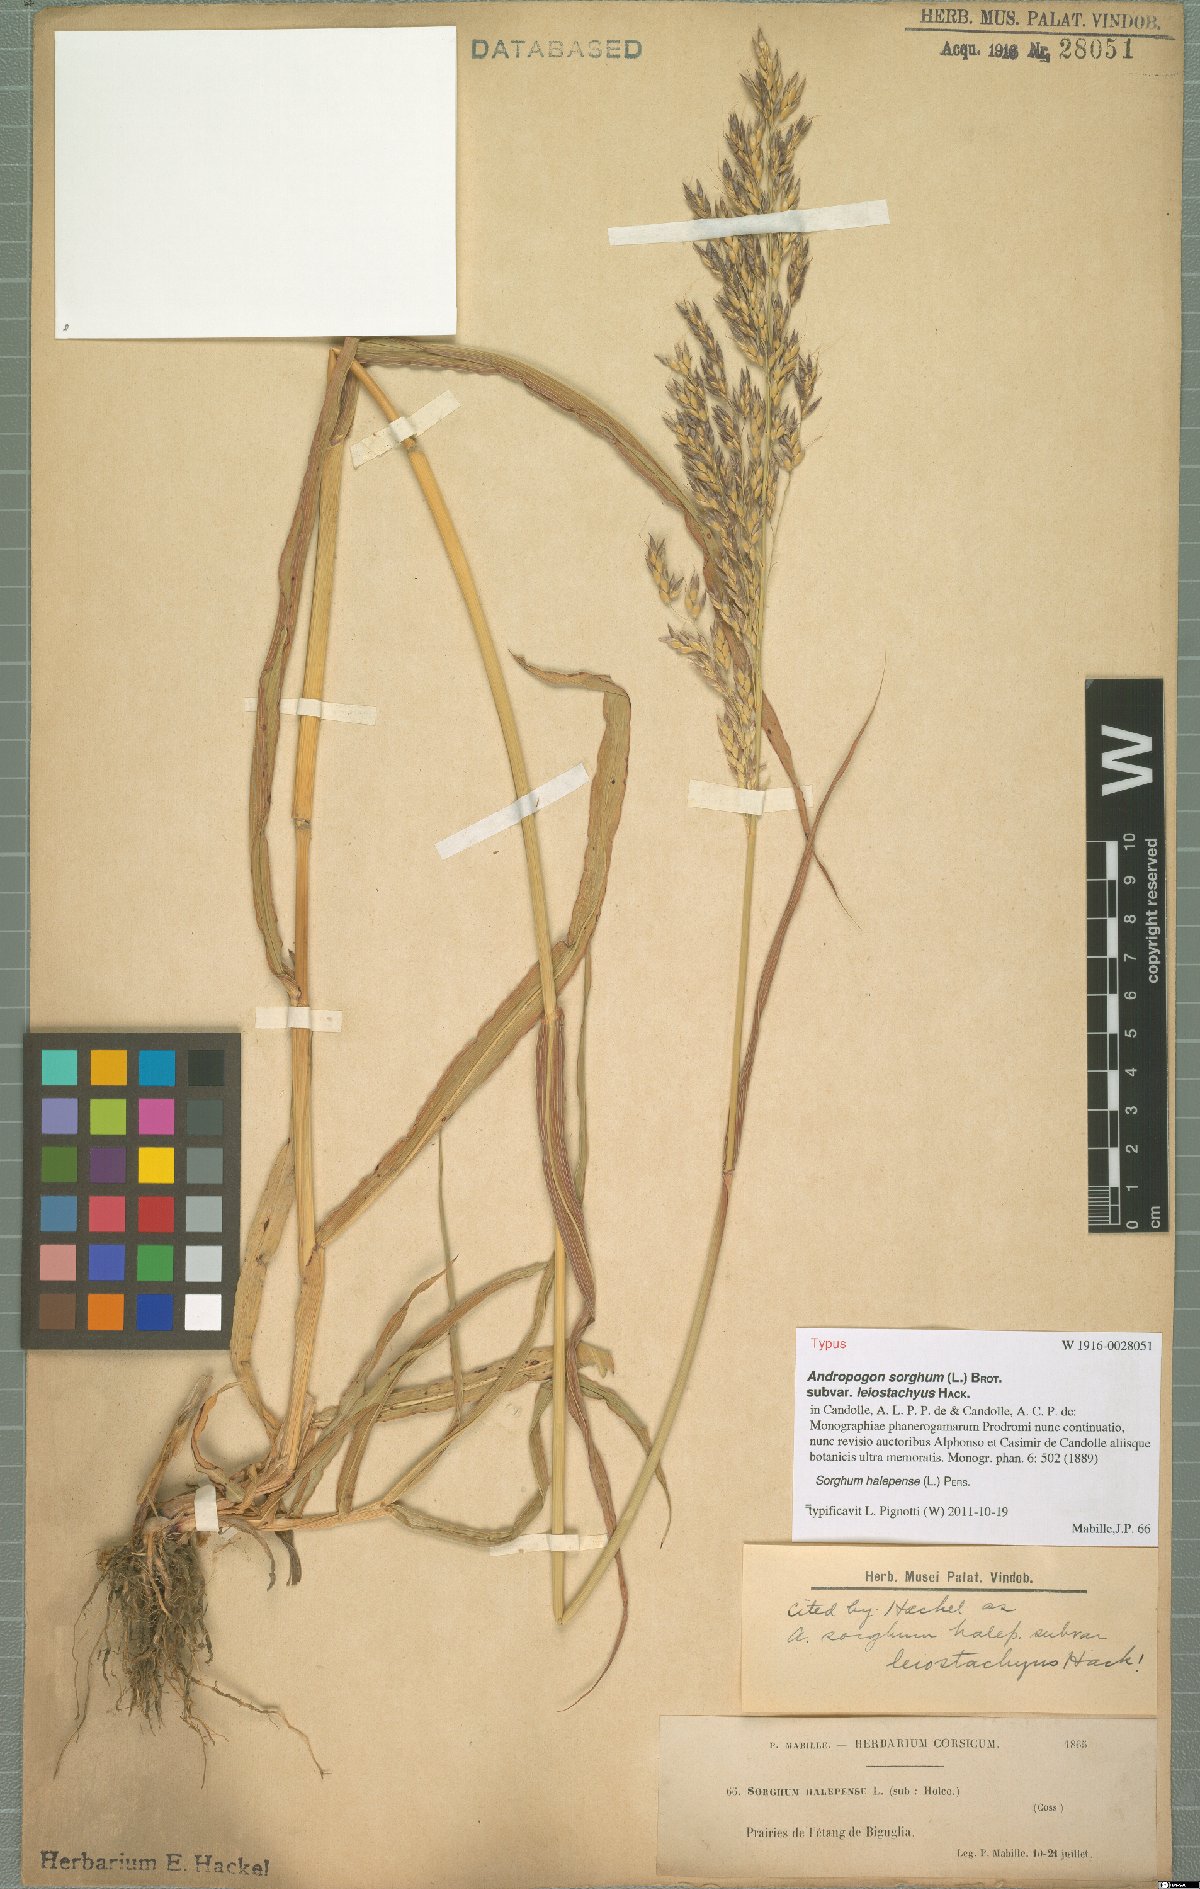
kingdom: Plantae
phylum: Tracheophyta
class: Liliopsida
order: Poales
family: Poaceae
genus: Sorghum
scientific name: Sorghum halepense
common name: Johnson-grass
